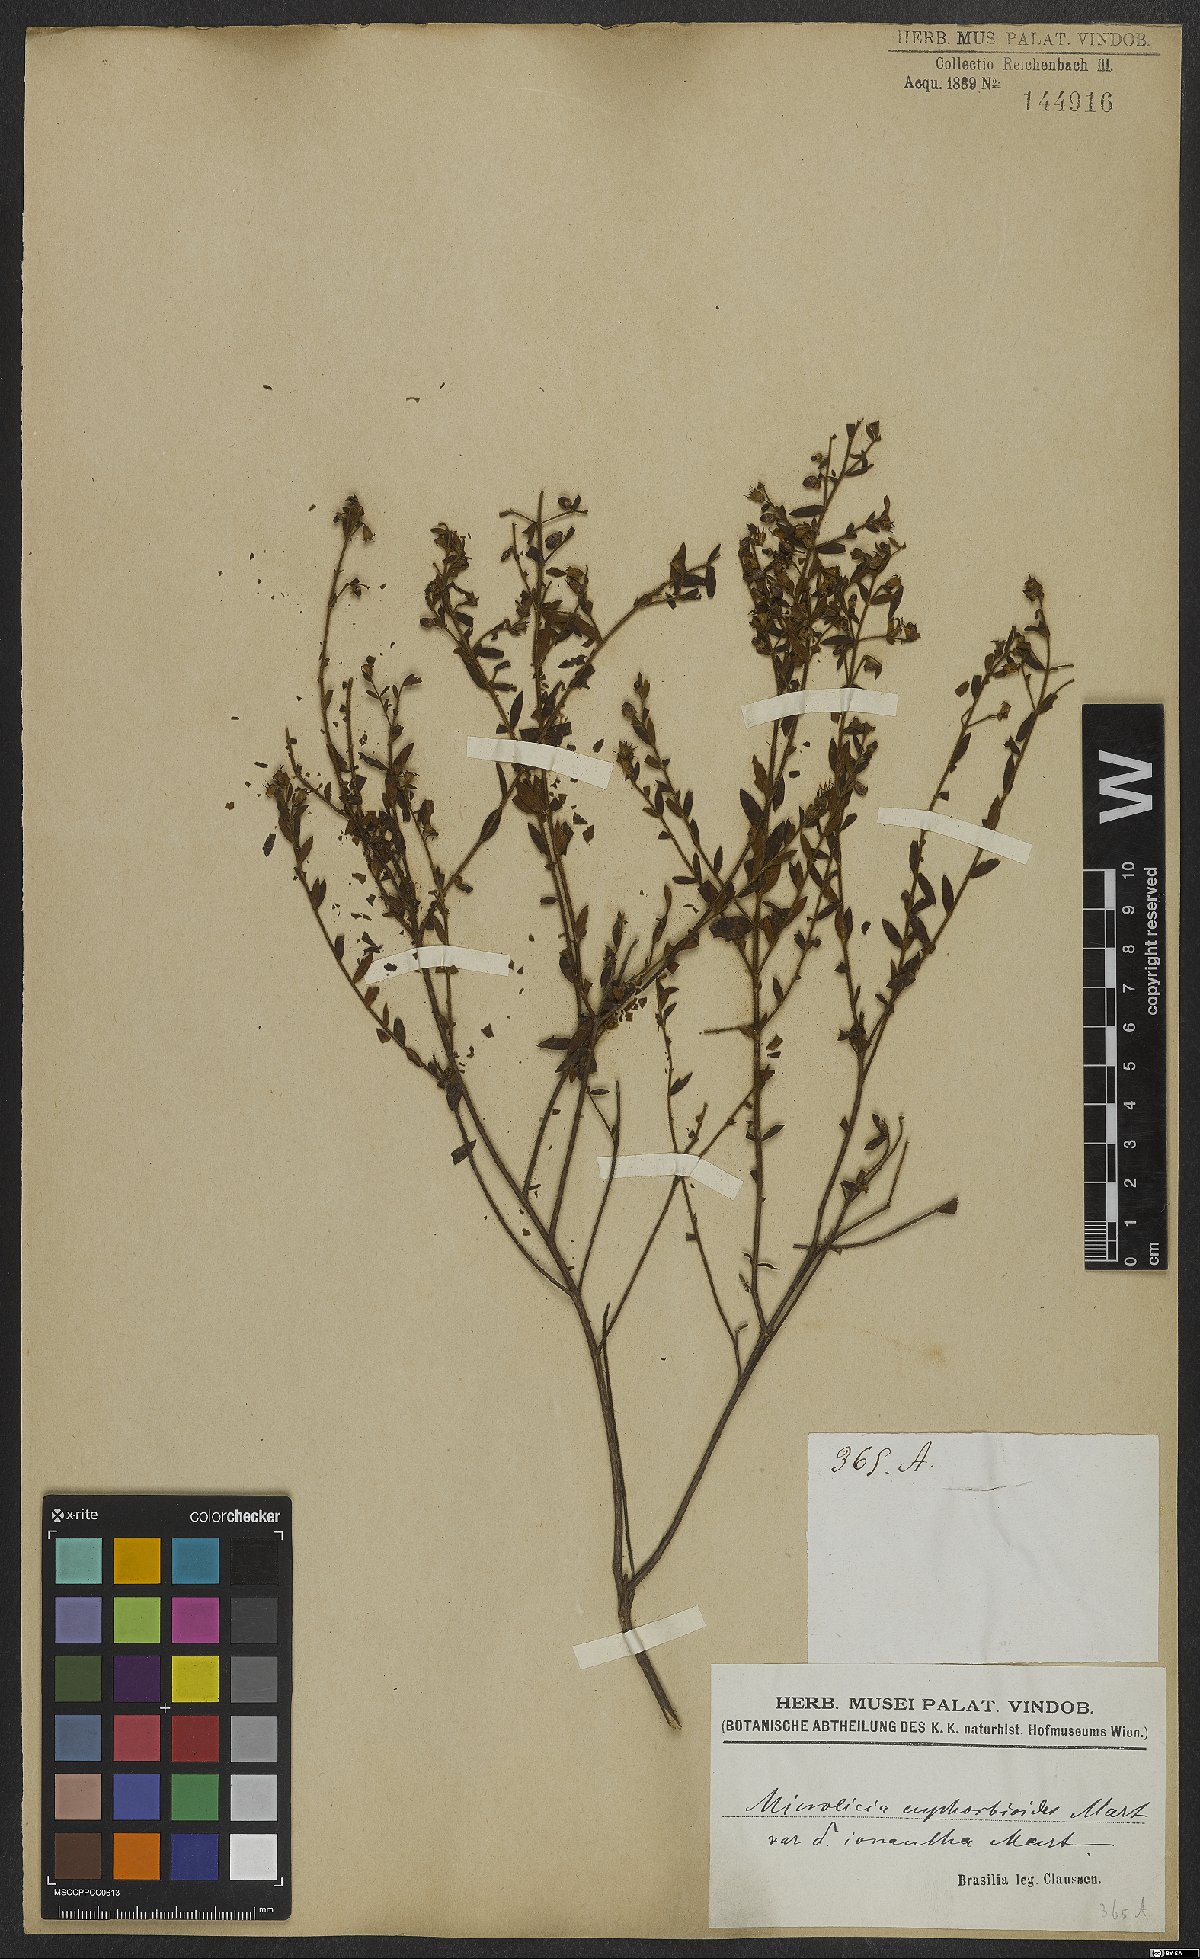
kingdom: Plantae
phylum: Tracheophyta
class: Magnoliopsida
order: Myrtales
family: Melastomataceae
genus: Microlicia
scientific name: Microlicia euphorbioides
